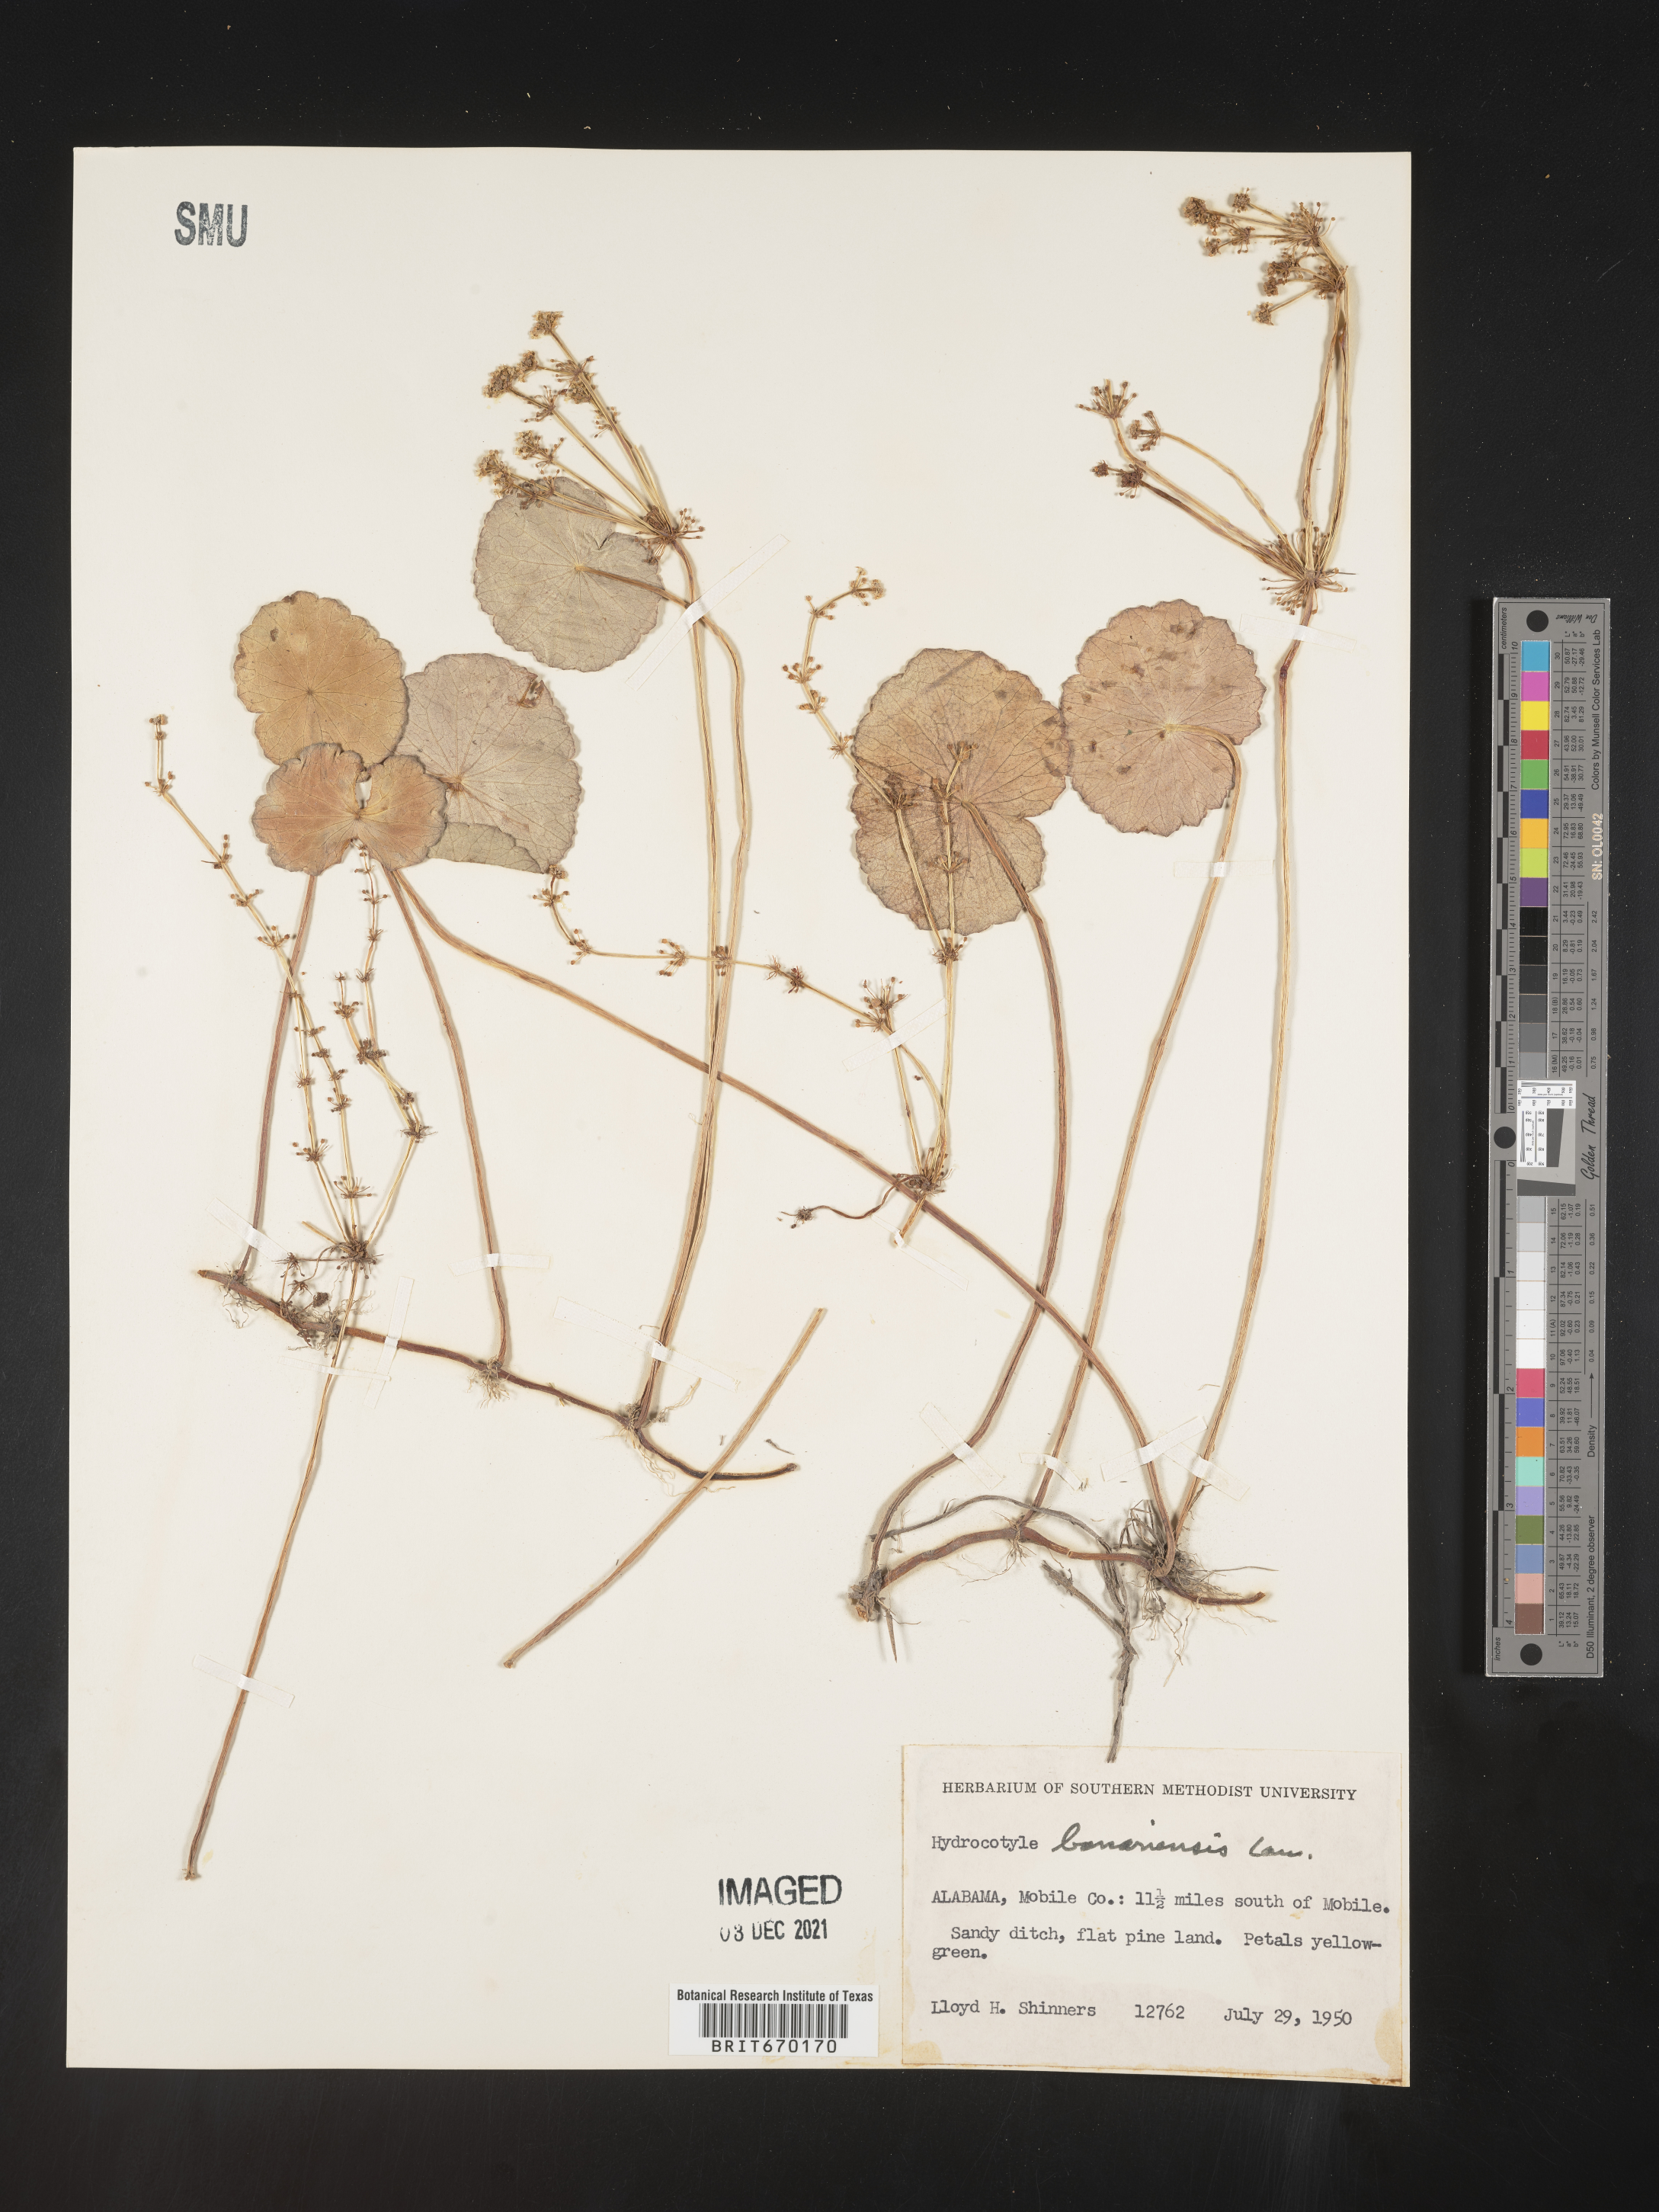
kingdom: Plantae
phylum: Tracheophyta
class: Magnoliopsida
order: Apiales
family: Araliaceae
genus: Hydrocotyle
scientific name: Hydrocotyle bonariensis
